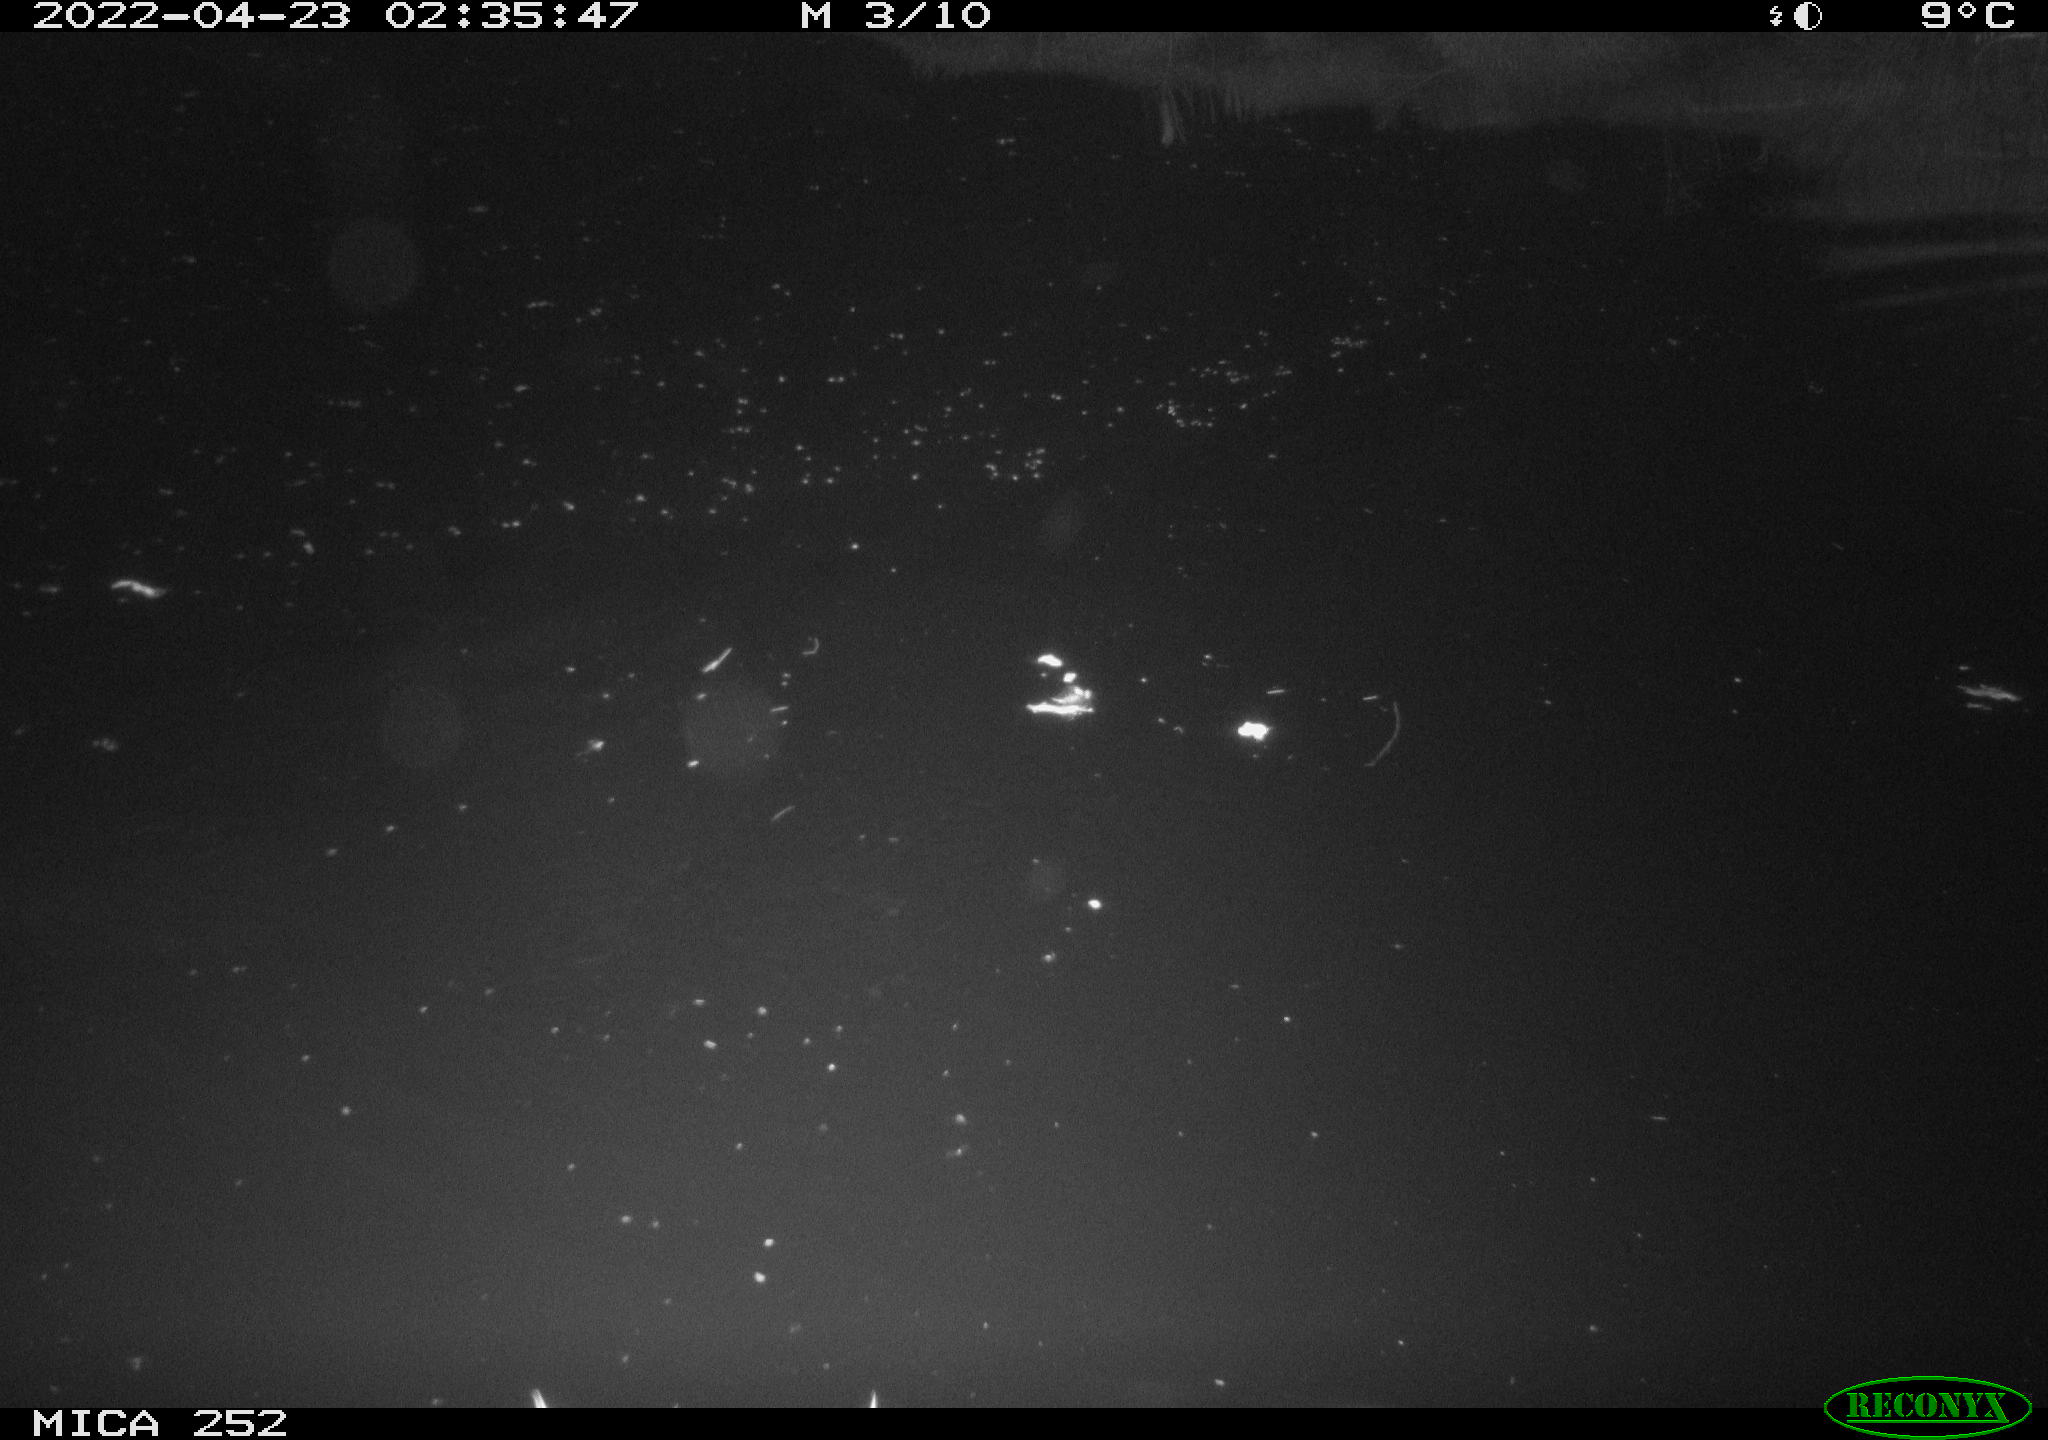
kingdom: Animalia
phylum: Chordata
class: Mammalia
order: Rodentia
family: Castoridae
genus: Castor
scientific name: Castor fiber
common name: Eurasian beaver
